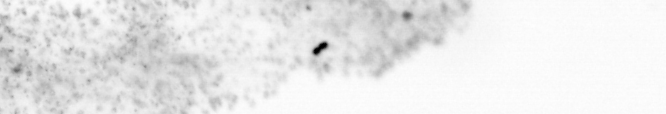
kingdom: Animalia
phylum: Chordata
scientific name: Chordata
